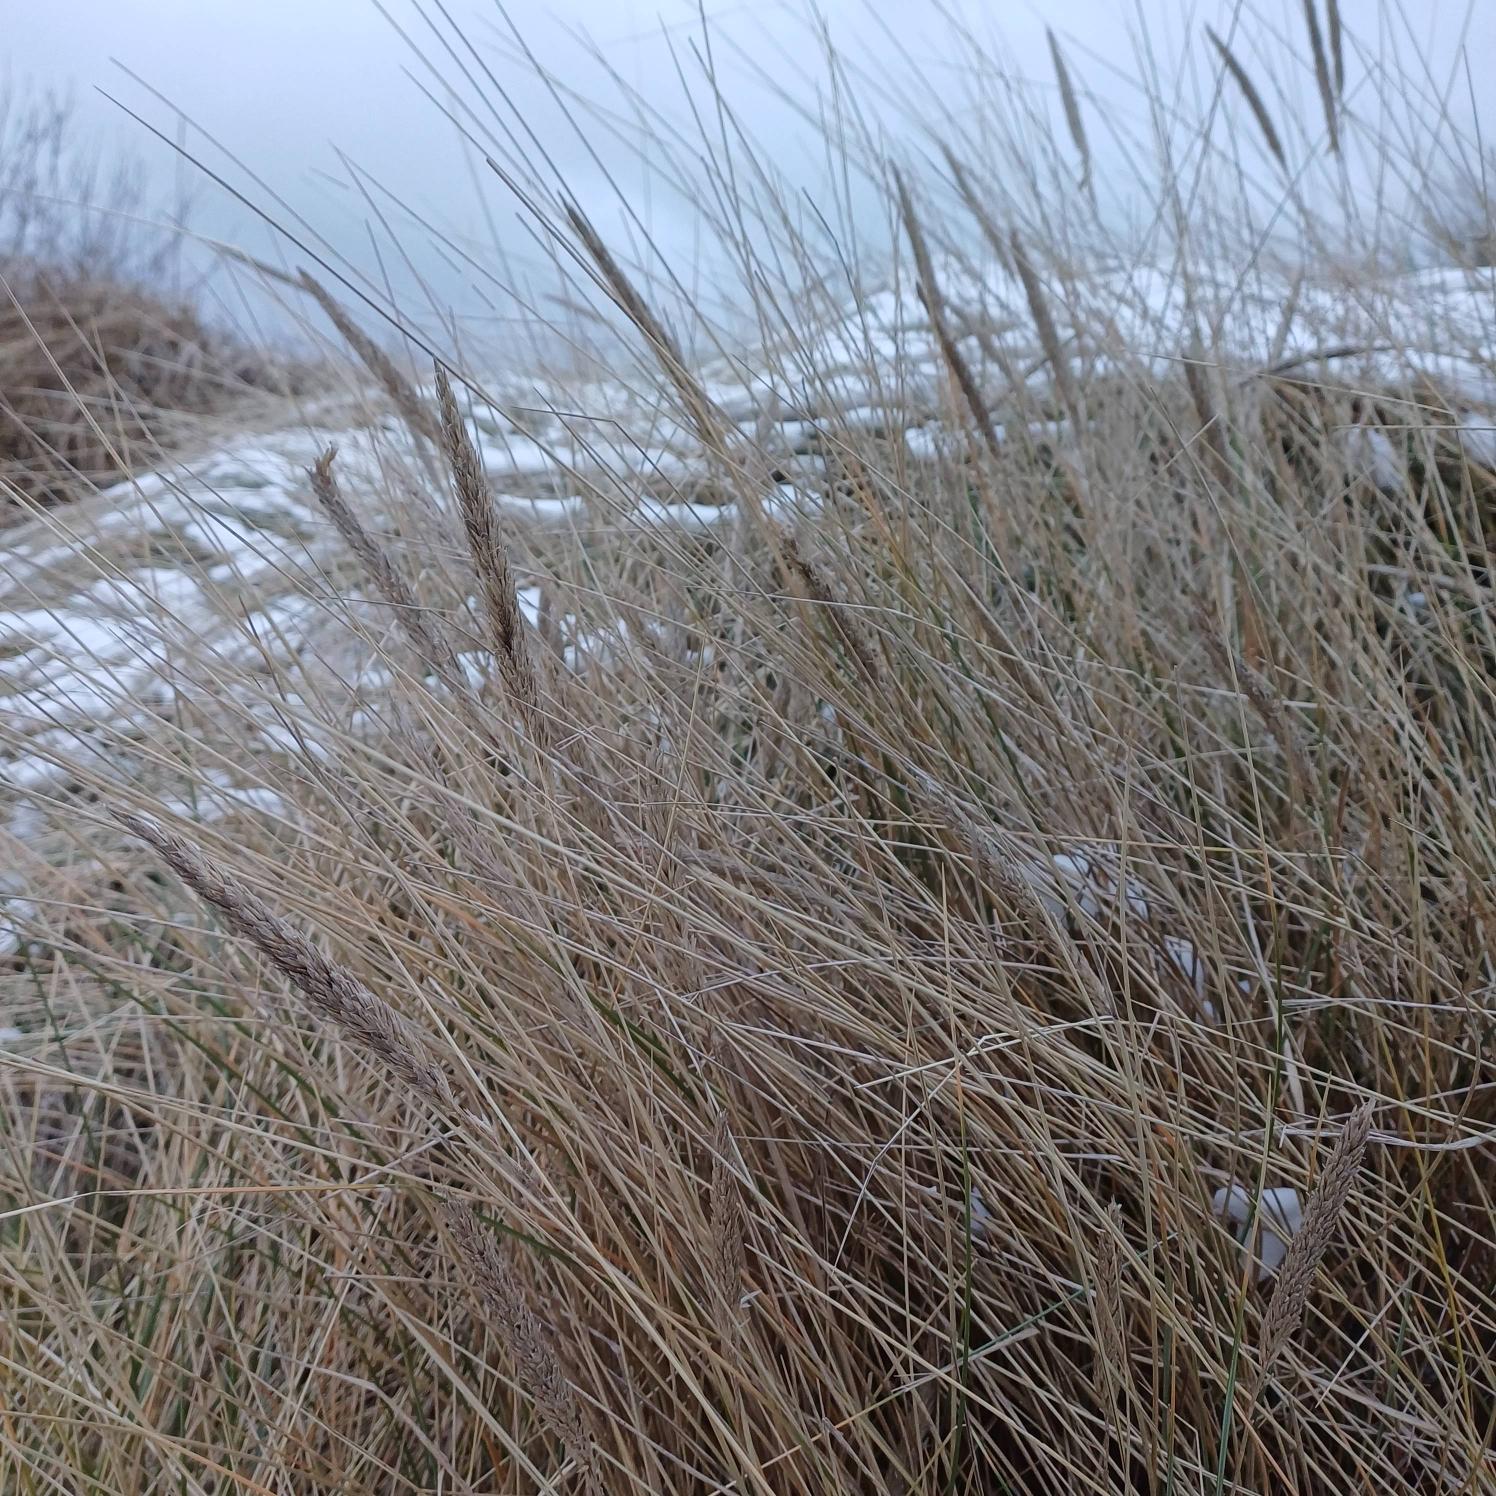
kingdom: Plantae
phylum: Tracheophyta
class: Liliopsida
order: Poales
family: Poaceae
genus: Calamagrostis
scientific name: Calamagrostis arenaria
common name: Sand-hjælme
